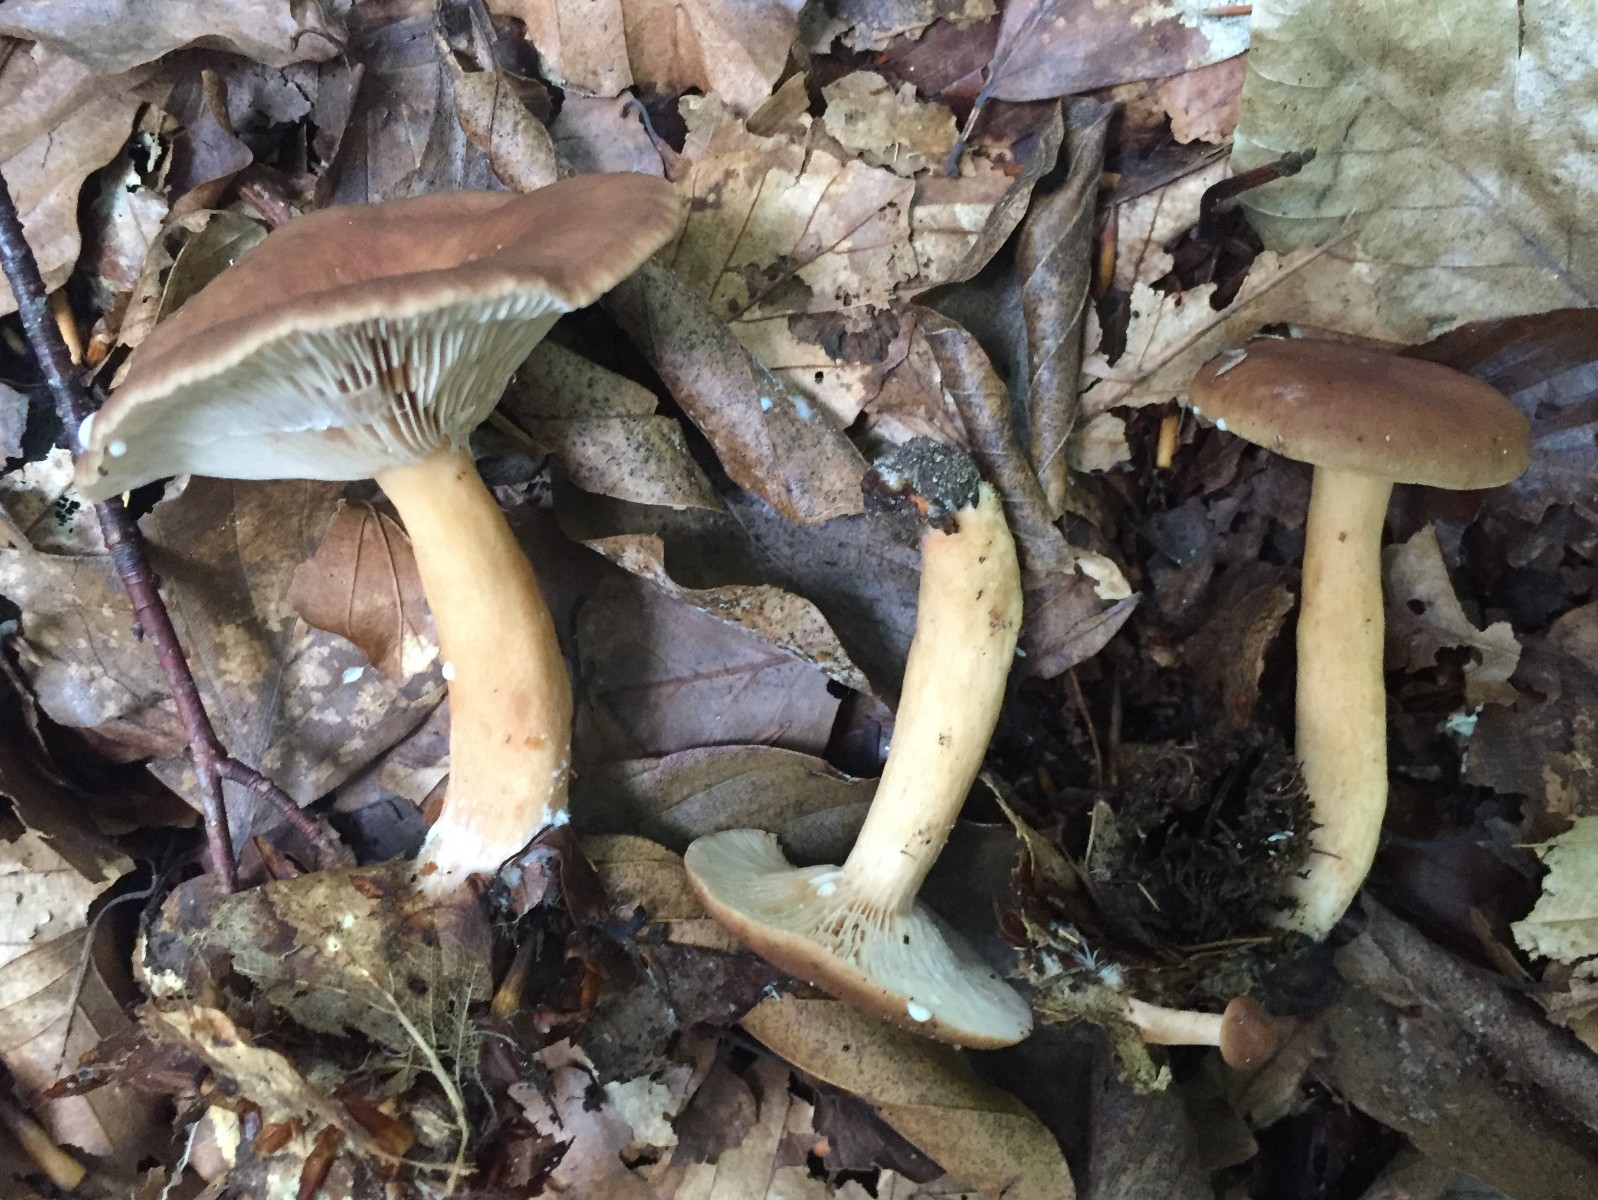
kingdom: Fungi
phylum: Basidiomycota
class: Agaricomycetes
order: Russulales
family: Russulaceae
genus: Lactarius
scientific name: Lactarius subdulcis
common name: sødlig mælkehat
